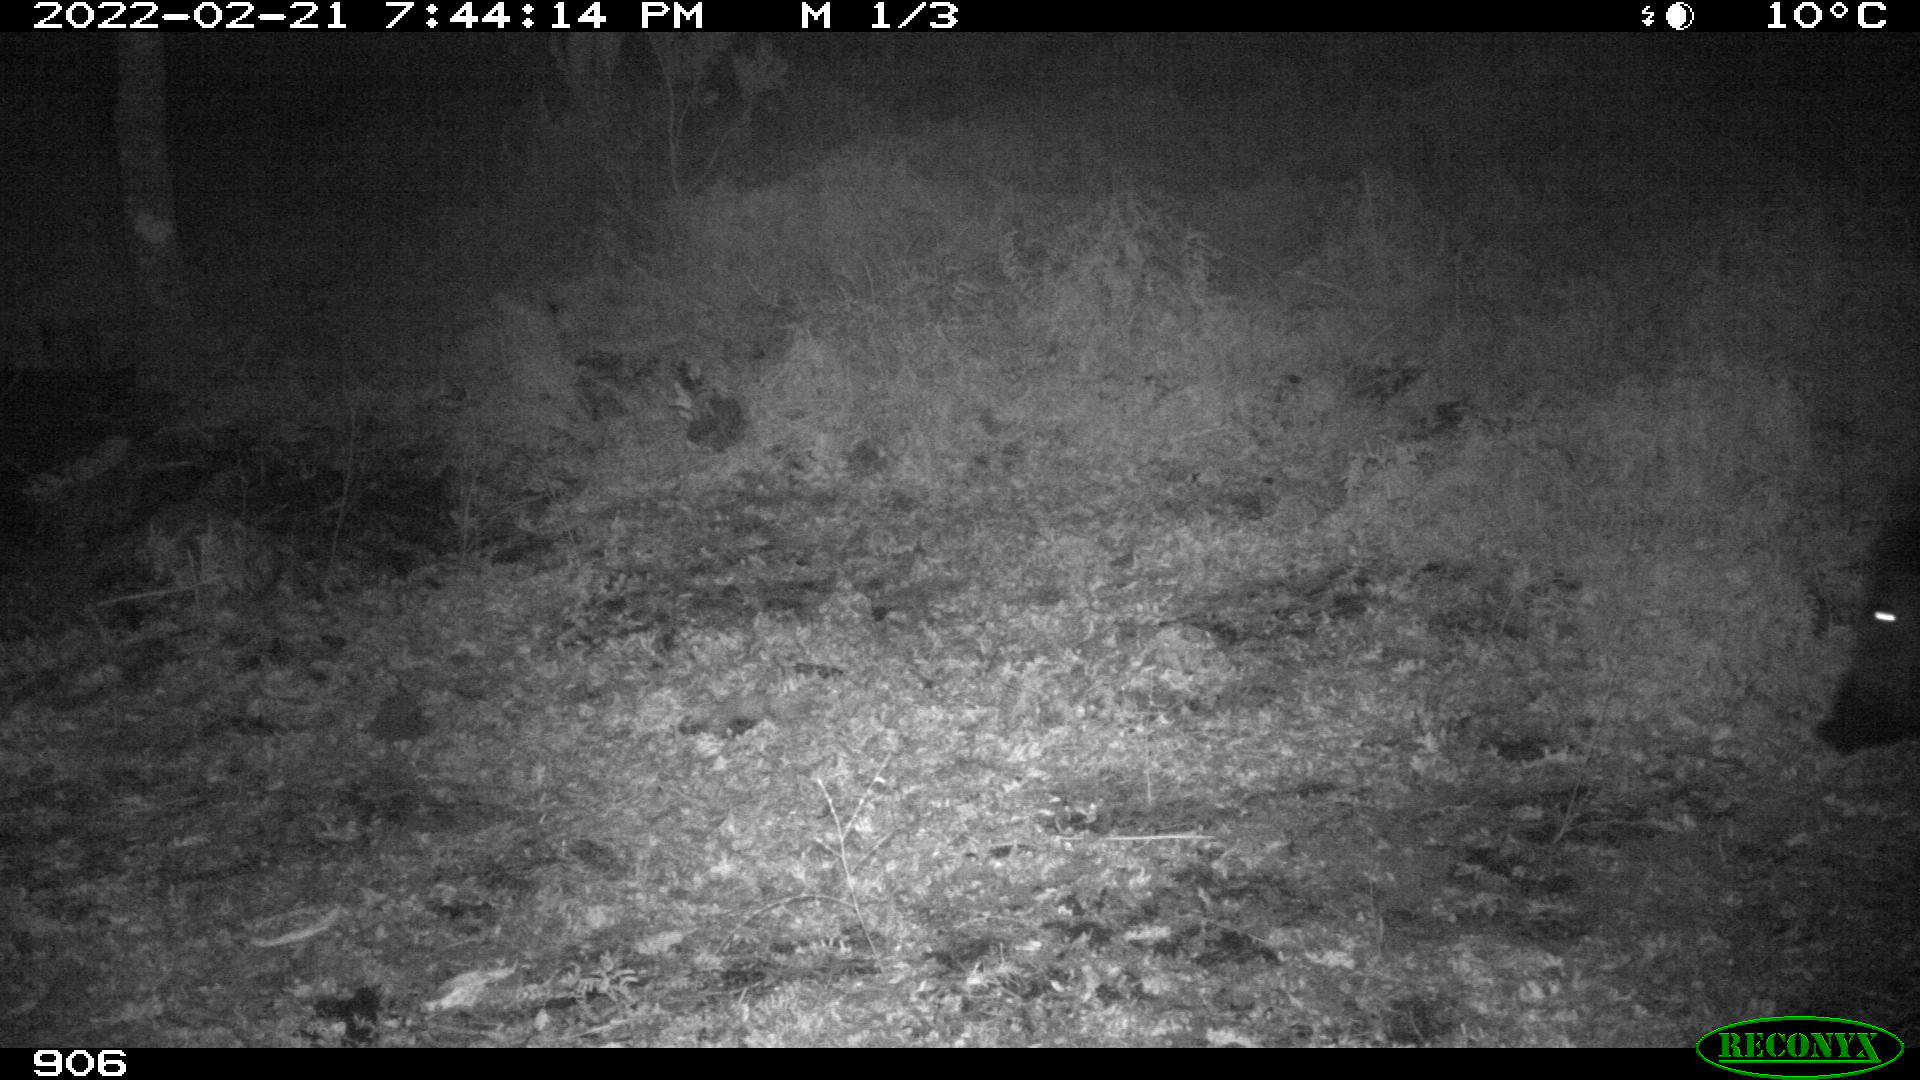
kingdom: Animalia
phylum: Chordata
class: Mammalia
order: Artiodactyla
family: Suidae
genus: Sus
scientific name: Sus scrofa
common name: Wild boar
